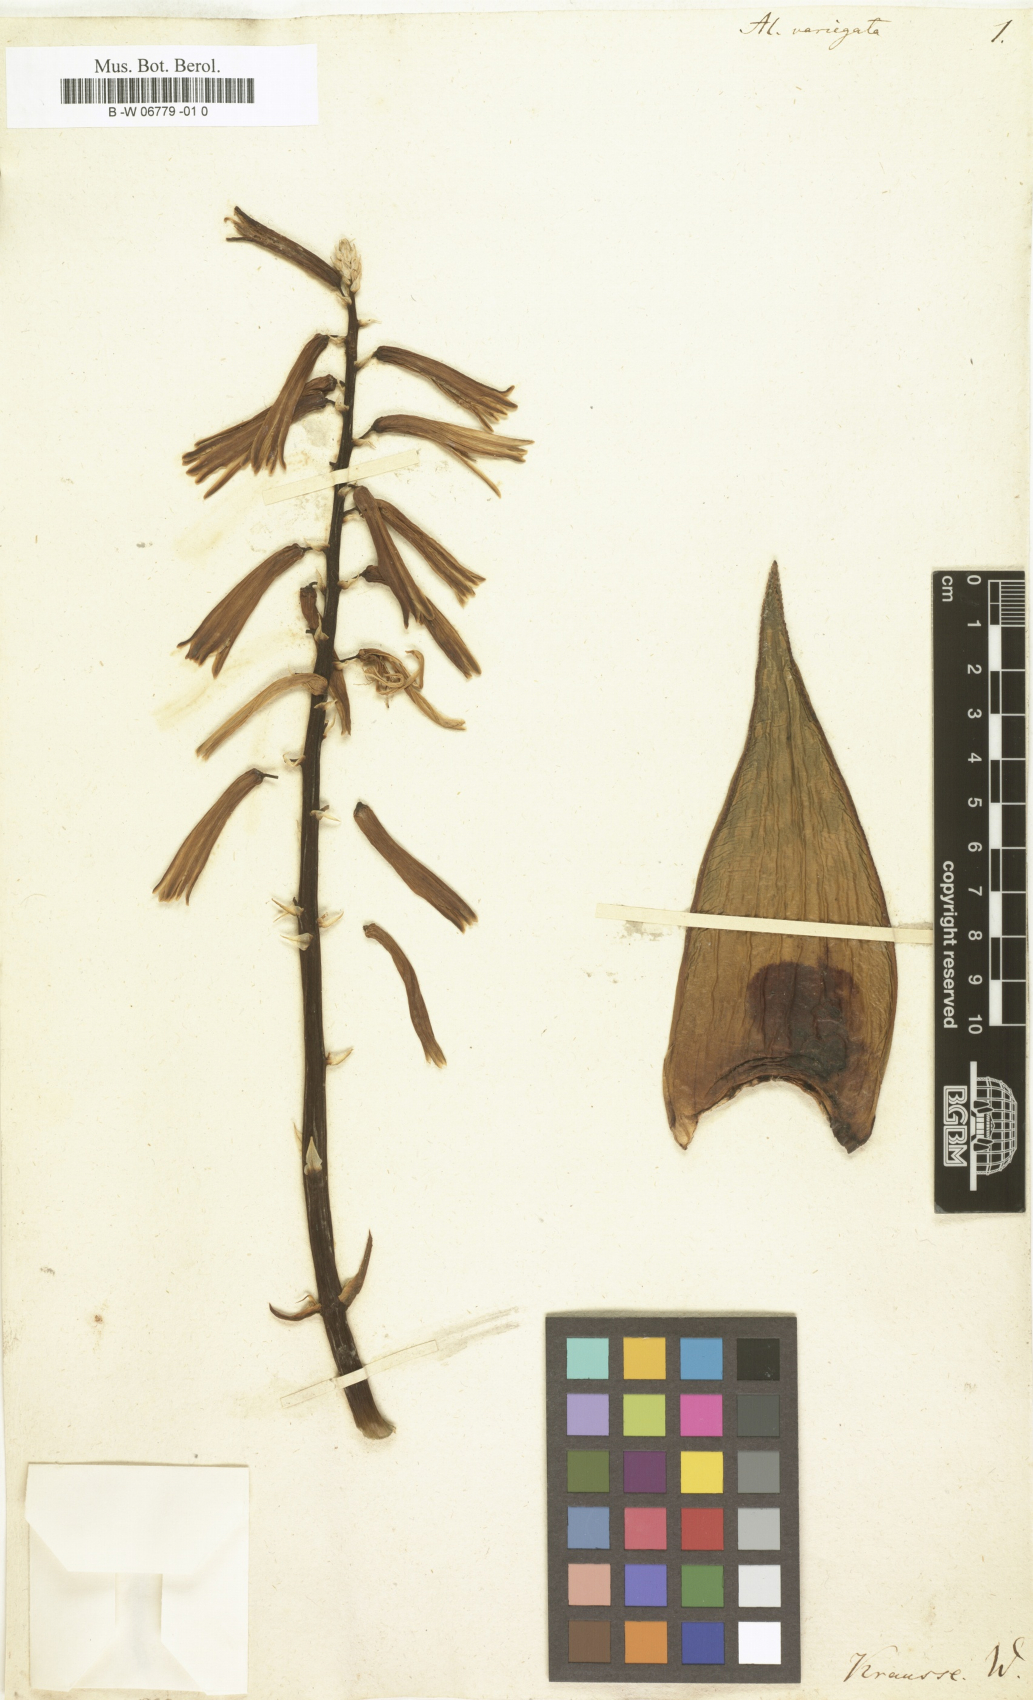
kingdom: Plantae
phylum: Tracheophyta
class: Liliopsida
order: Asparagales
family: Asphodelaceae
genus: Gonialoe
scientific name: Gonialoe variegata
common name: Aloe variegata
